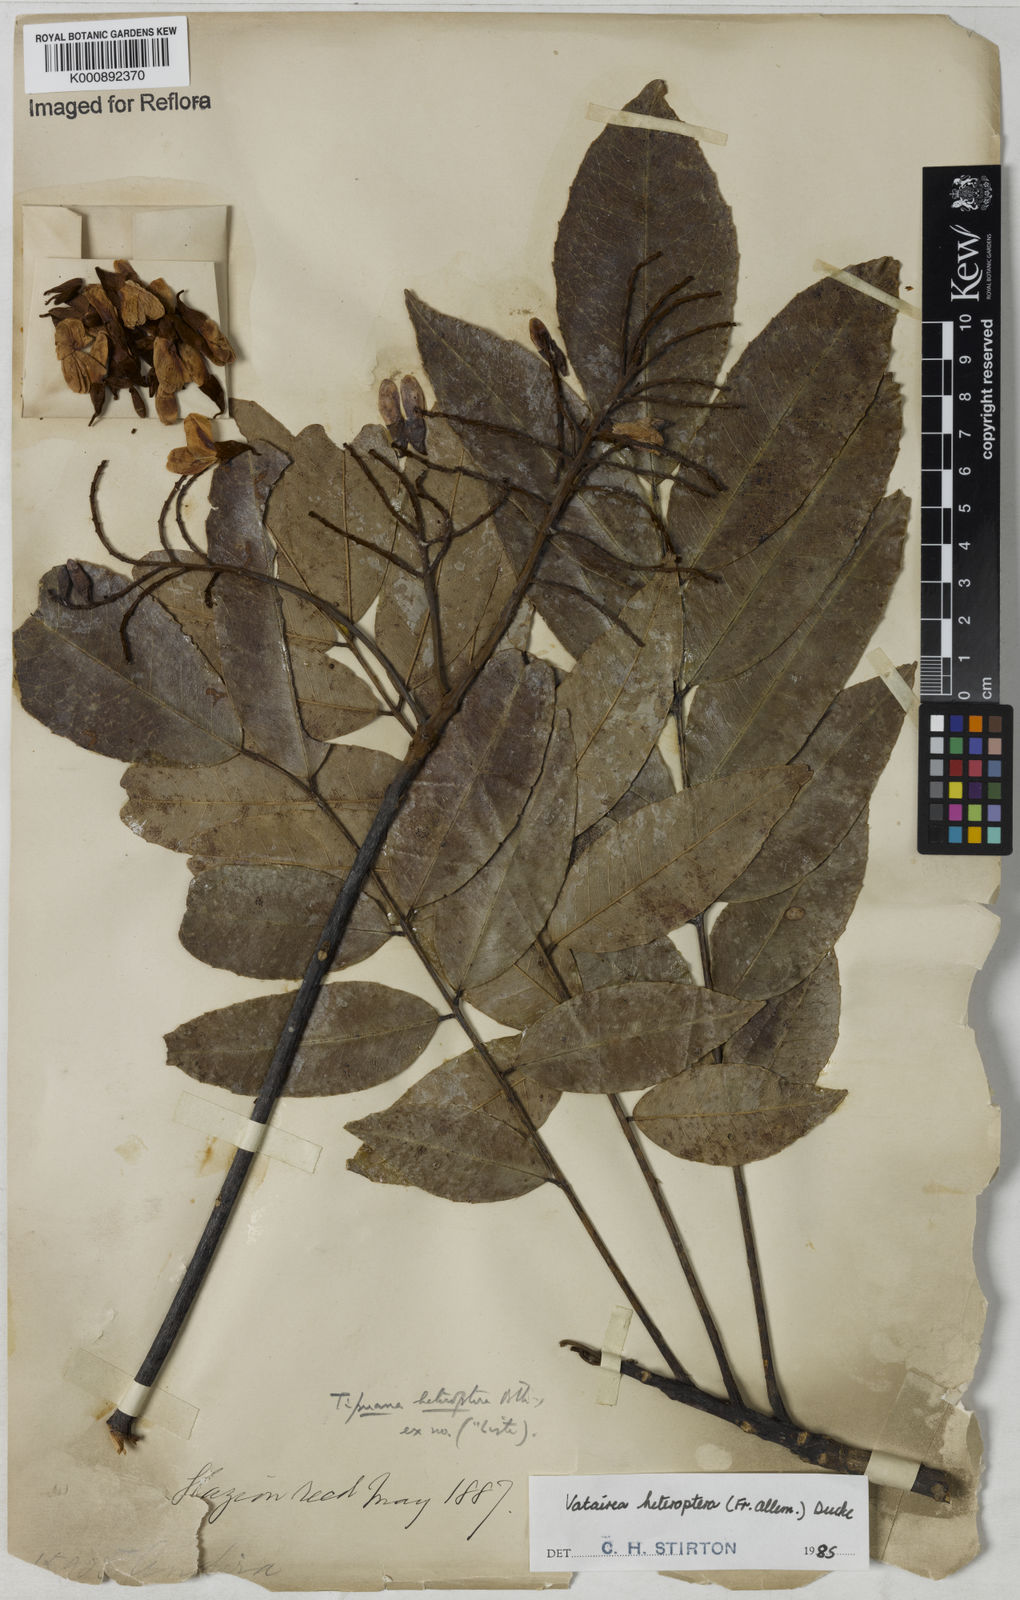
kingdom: Plantae
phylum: Tracheophyta
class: Magnoliopsida
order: Fabales
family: Fabaceae
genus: Vatairea
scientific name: Vatairea
